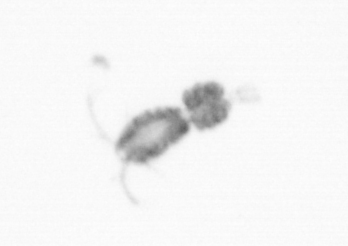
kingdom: Animalia
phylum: Arthropoda
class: Copepoda
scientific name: Copepoda
